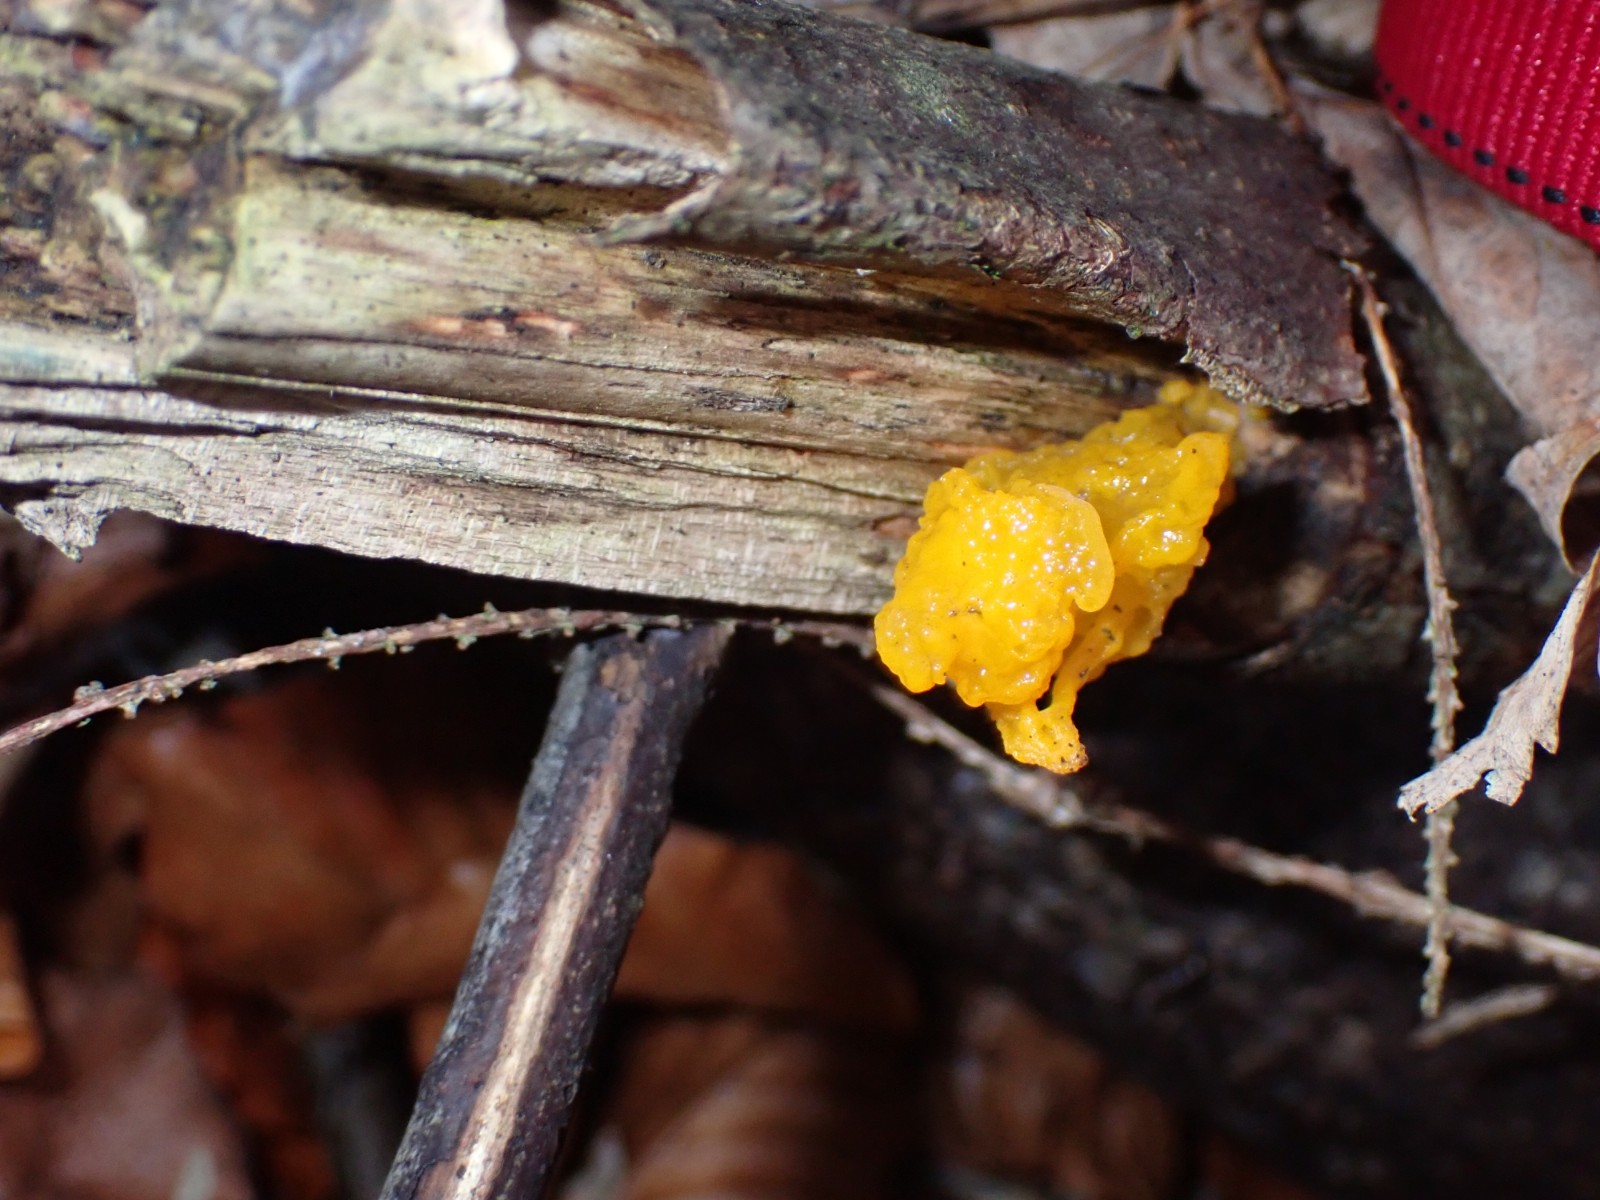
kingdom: Fungi
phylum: Basidiomycota
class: Tremellomycetes
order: Tremellales
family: Tremellaceae
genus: Tremella
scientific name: Tremella mesenterica
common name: gul bævresvamp
